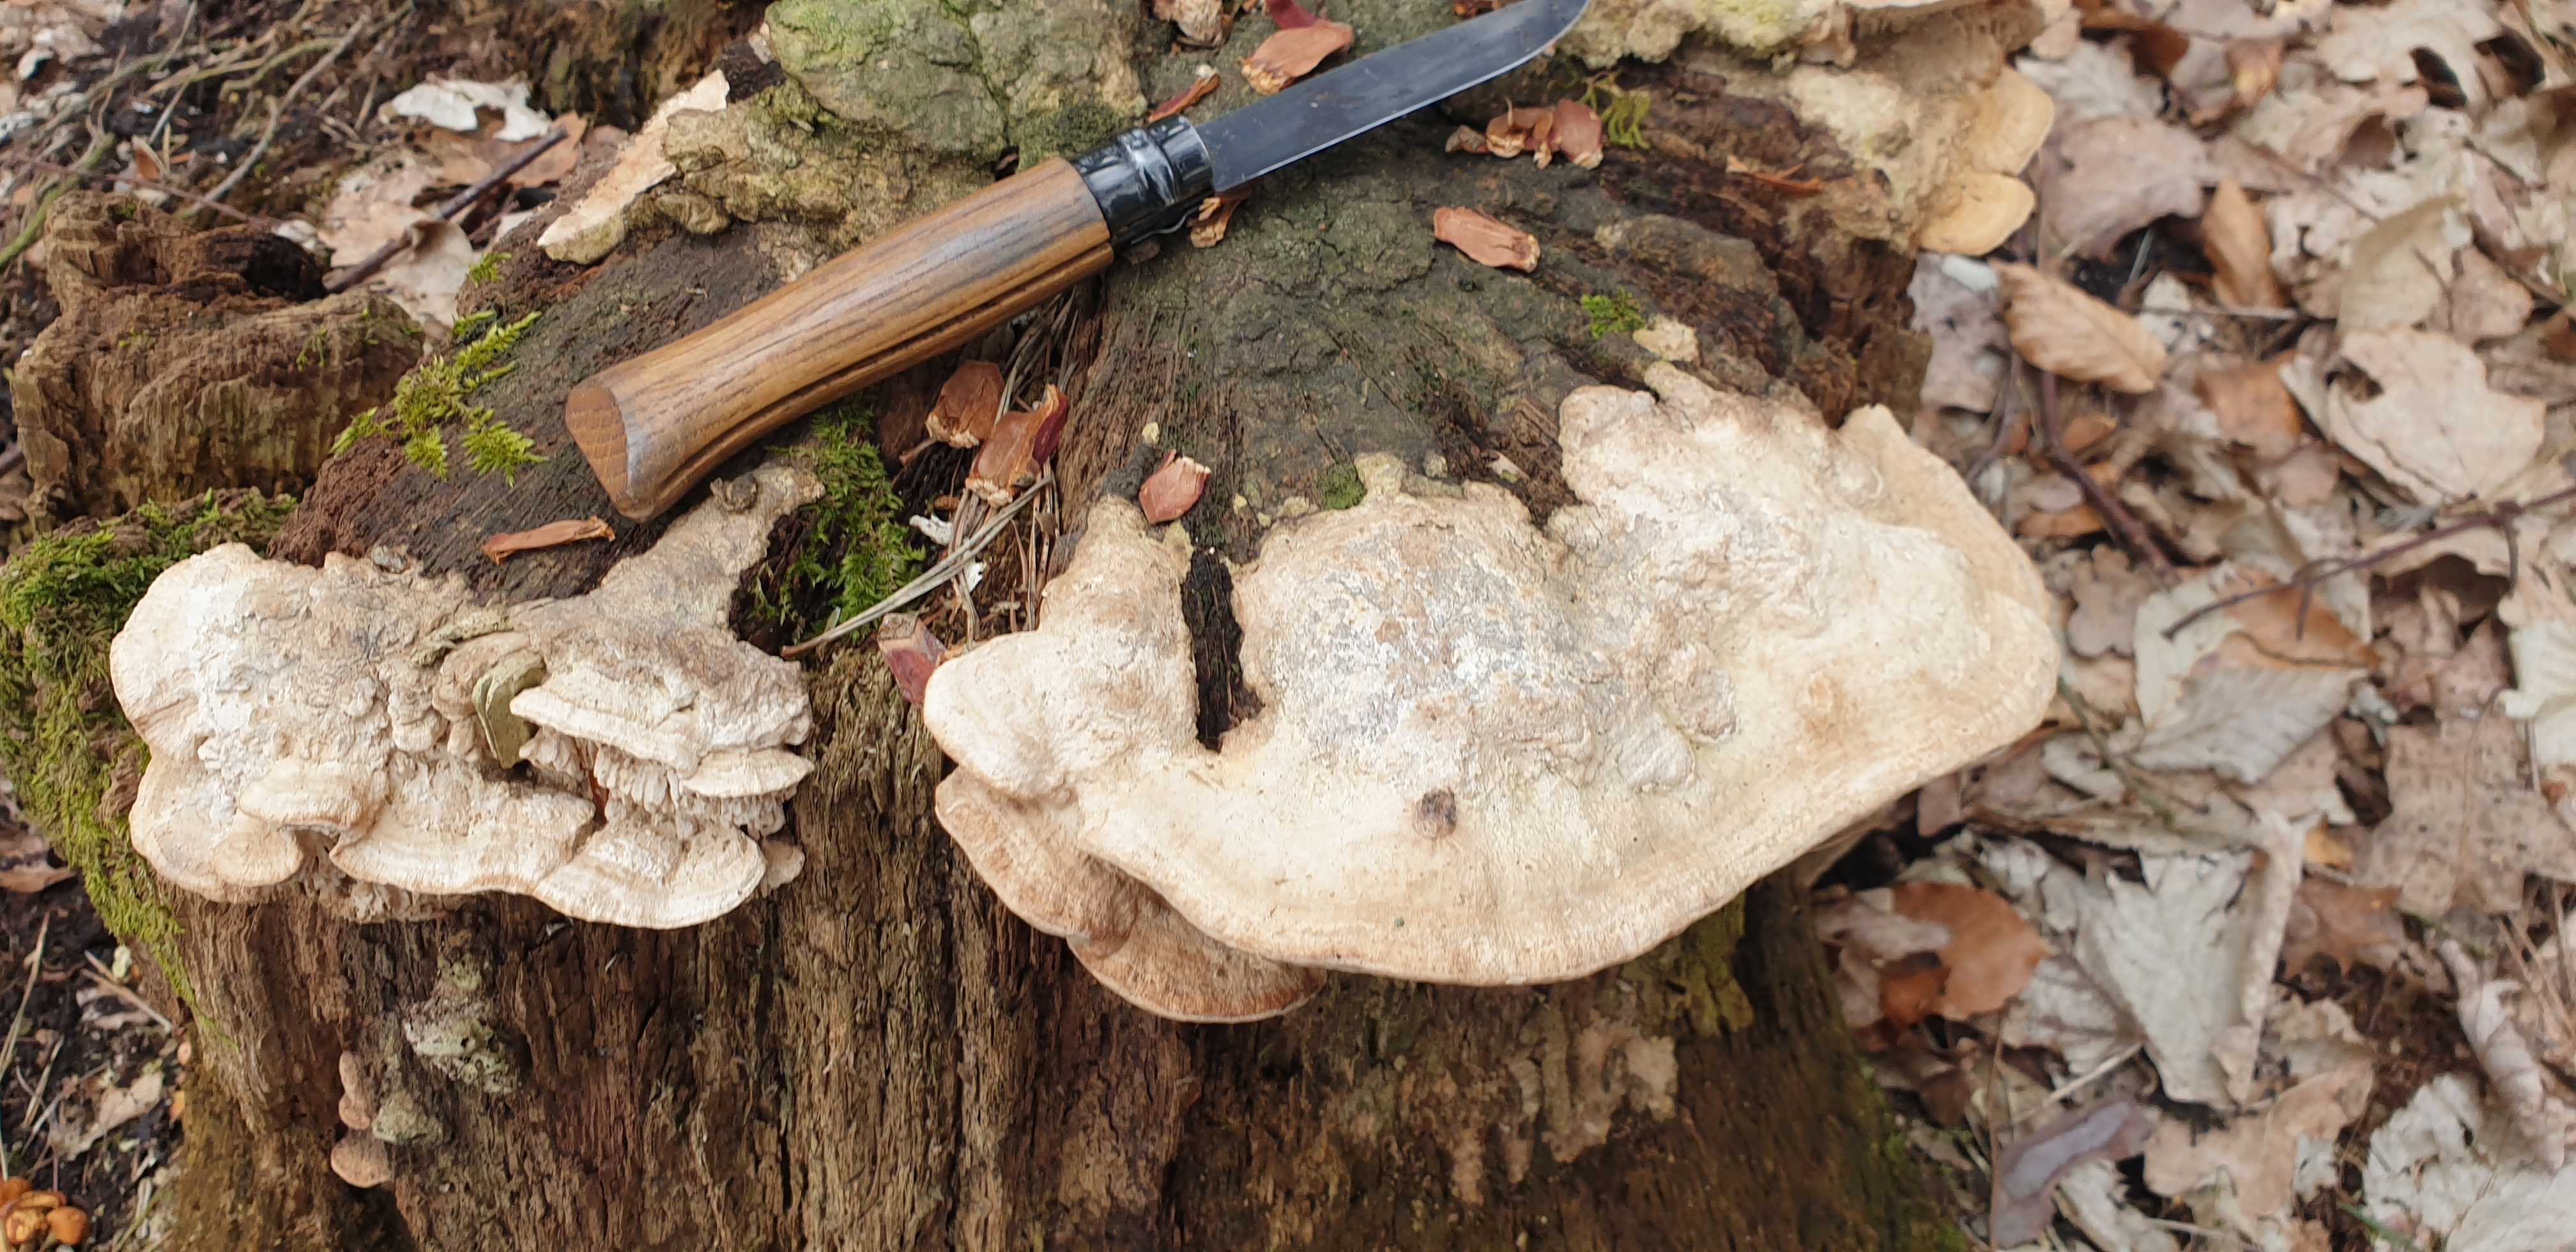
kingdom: Fungi
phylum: Basidiomycota
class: Agaricomycetes
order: Polyporales
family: Fomitopsidaceae
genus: Daedalea
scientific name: Daedalea quercina
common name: ege-labyrintsvamp
